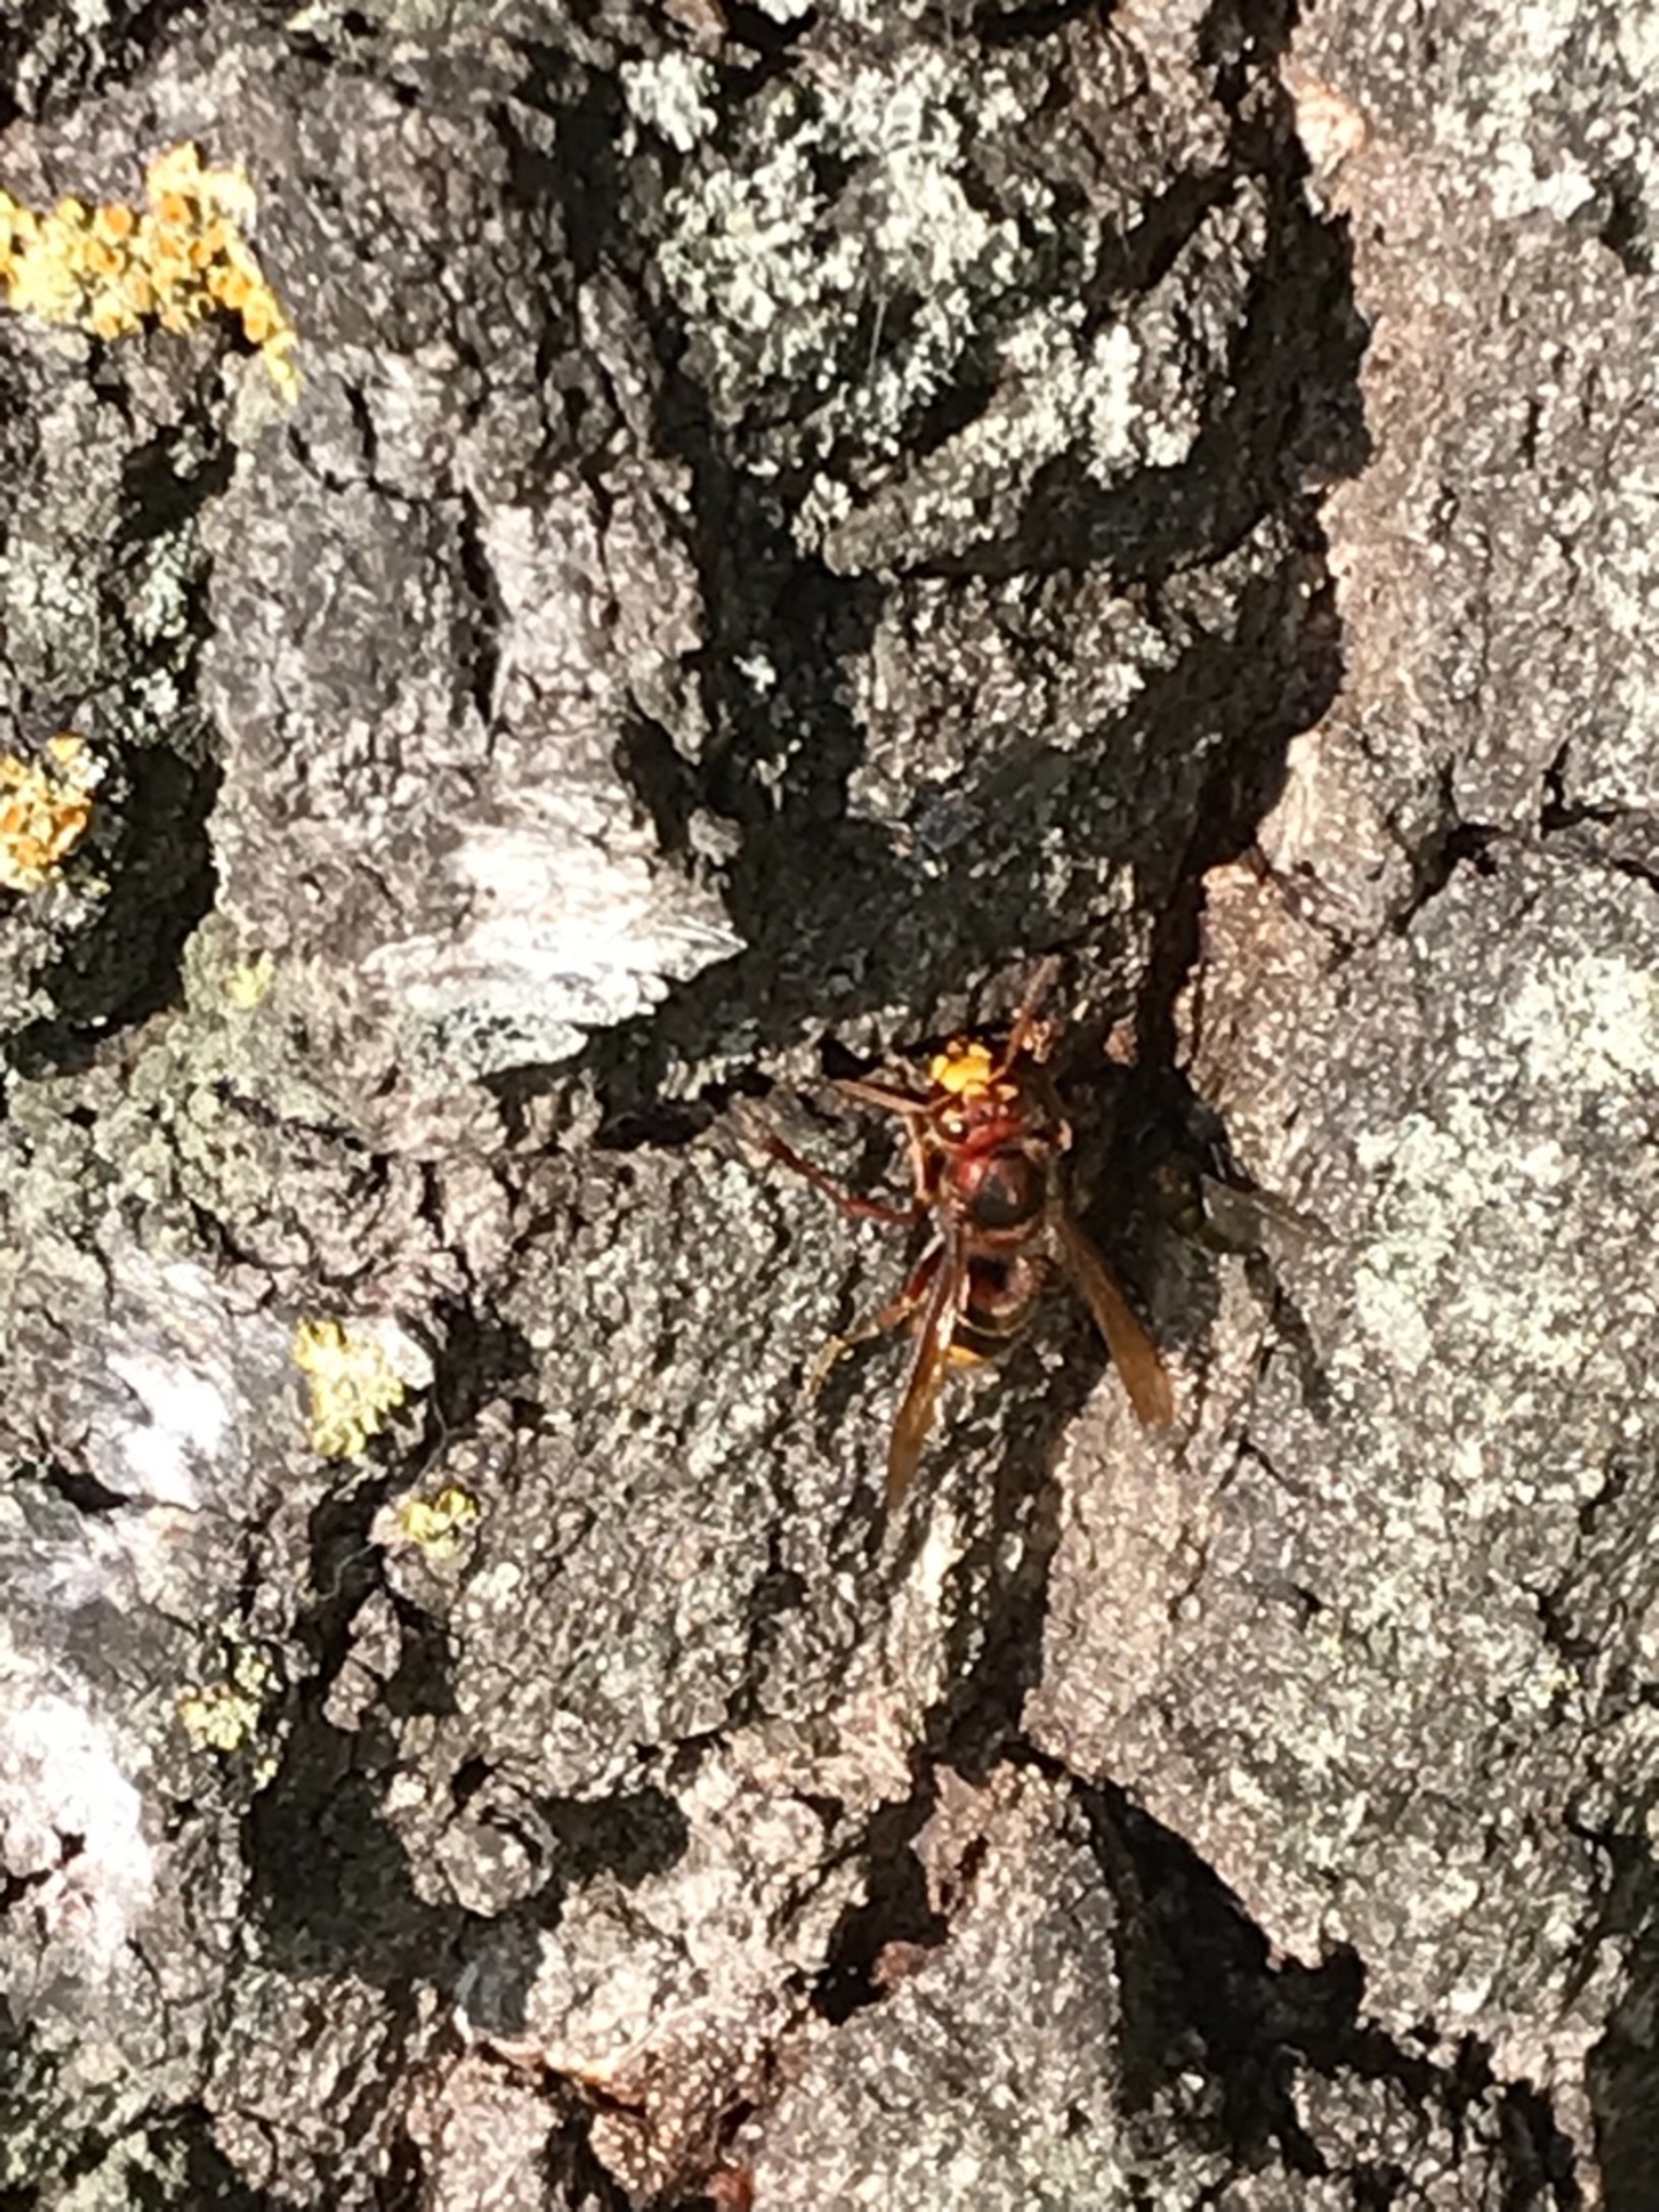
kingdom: Animalia
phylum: Arthropoda
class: Insecta
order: Hymenoptera
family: Vespidae
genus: Vespa
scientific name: Vespa crabro
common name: Stor gedehams
